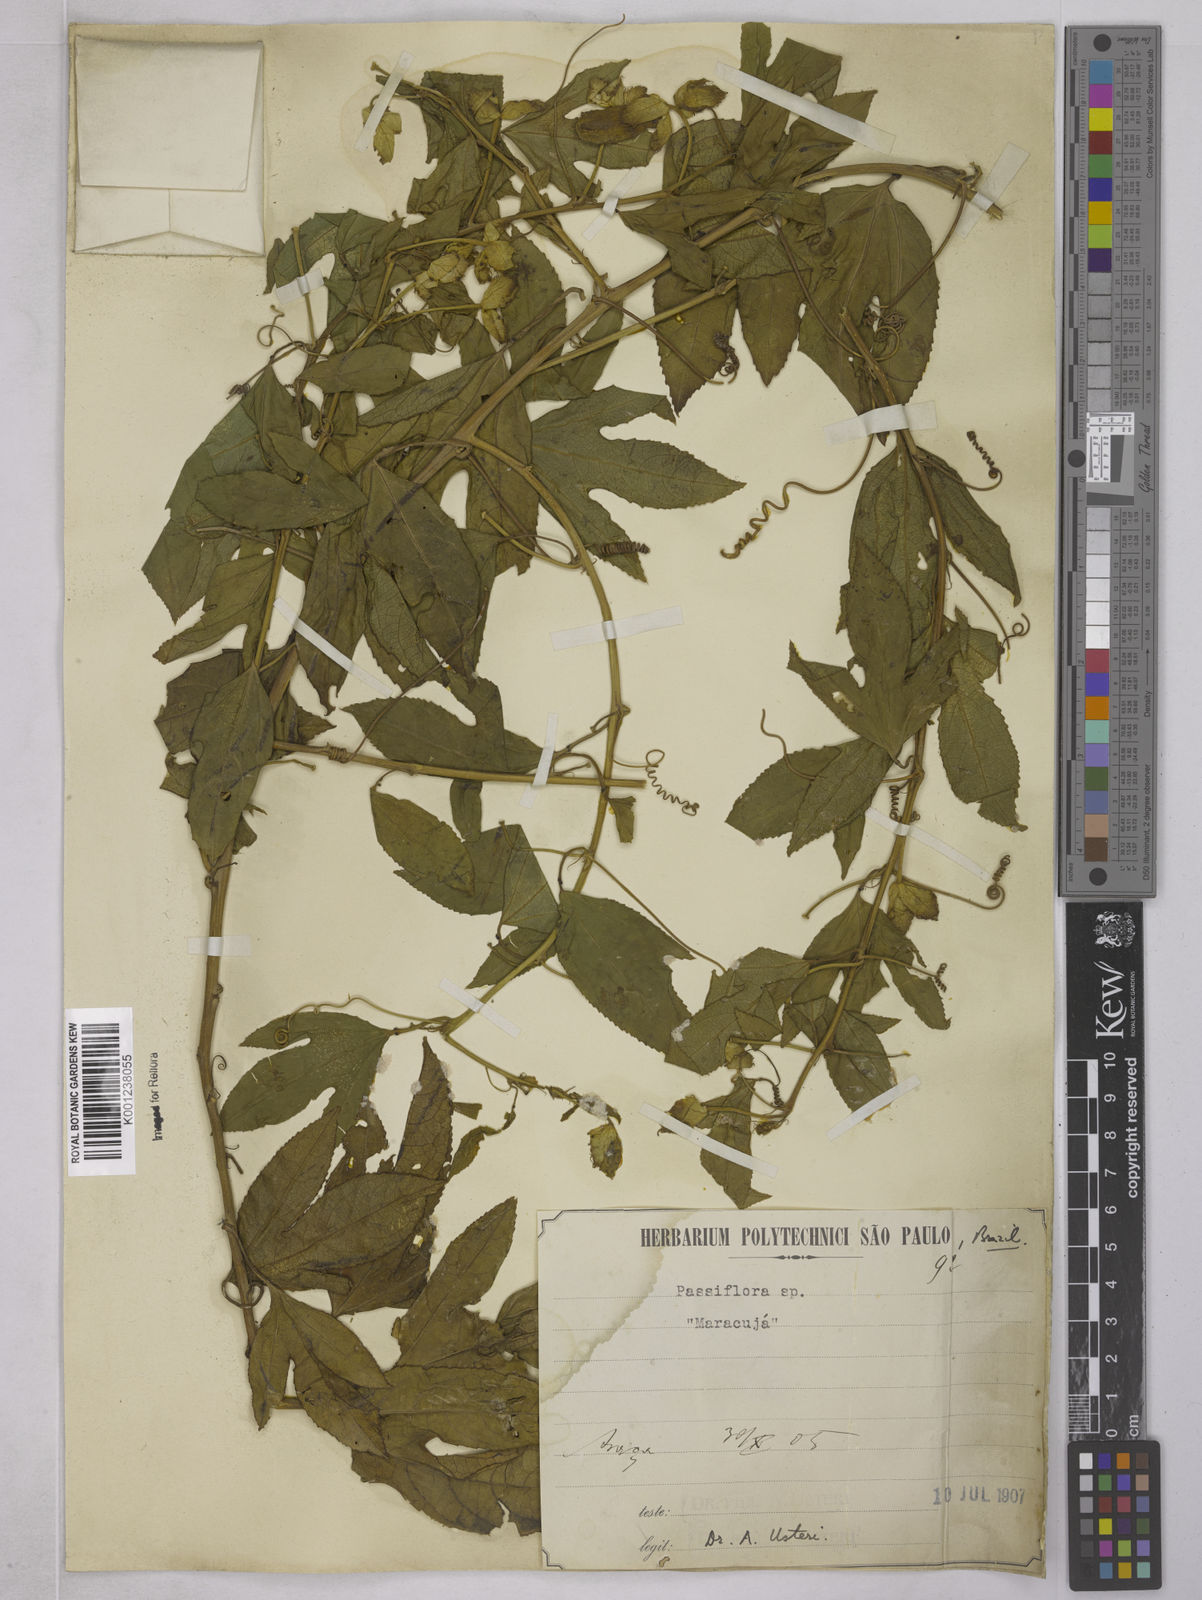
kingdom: Plantae
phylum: Tracheophyta
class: Magnoliopsida
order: Malpighiales
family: Passifloraceae
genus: Passiflora
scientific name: Passiflora edulis
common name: Purple granadilla
